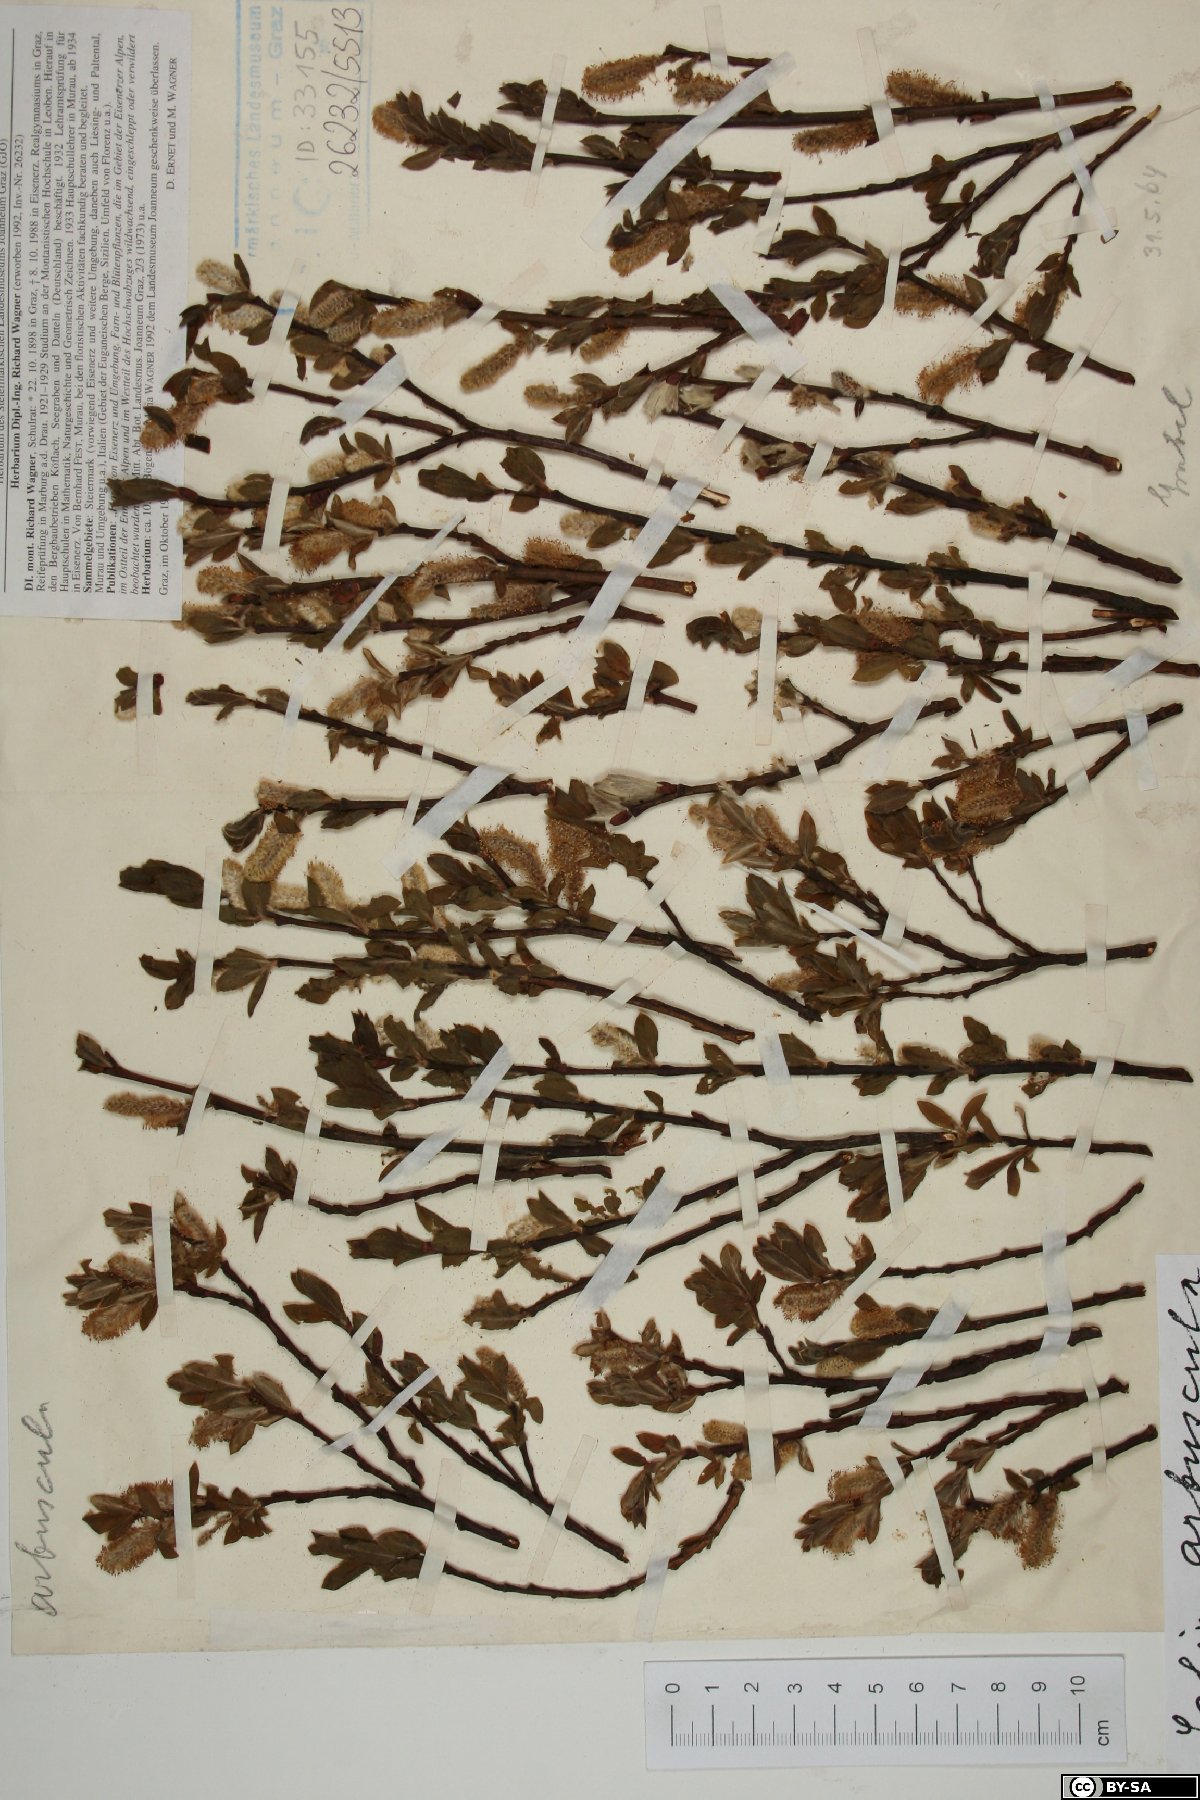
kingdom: Plantae
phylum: Tracheophyta
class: Magnoliopsida
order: Malpighiales
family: Salicaceae
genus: Salix
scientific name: Salix arbuscula
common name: Mountain willow
